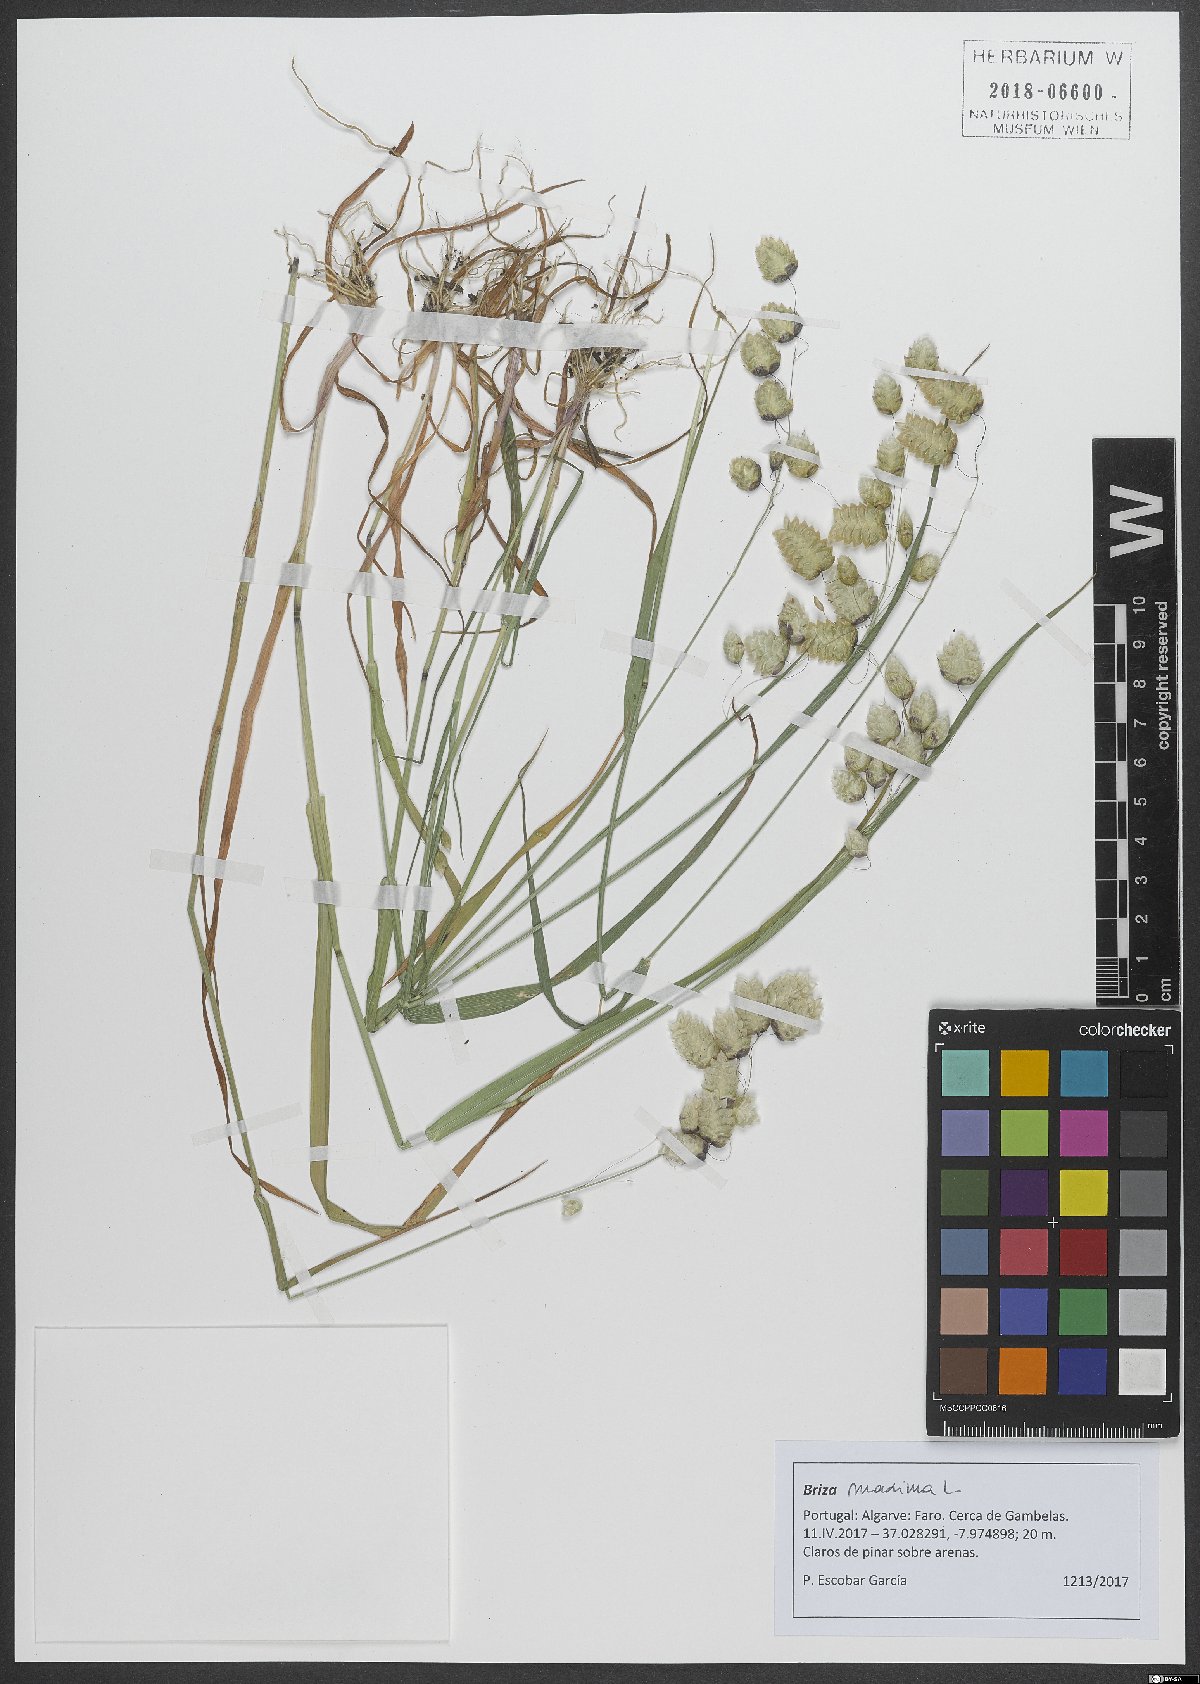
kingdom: Plantae
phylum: Tracheophyta
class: Liliopsida
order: Poales
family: Poaceae
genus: Briza
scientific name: Briza maxima
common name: Big quakinggrass
